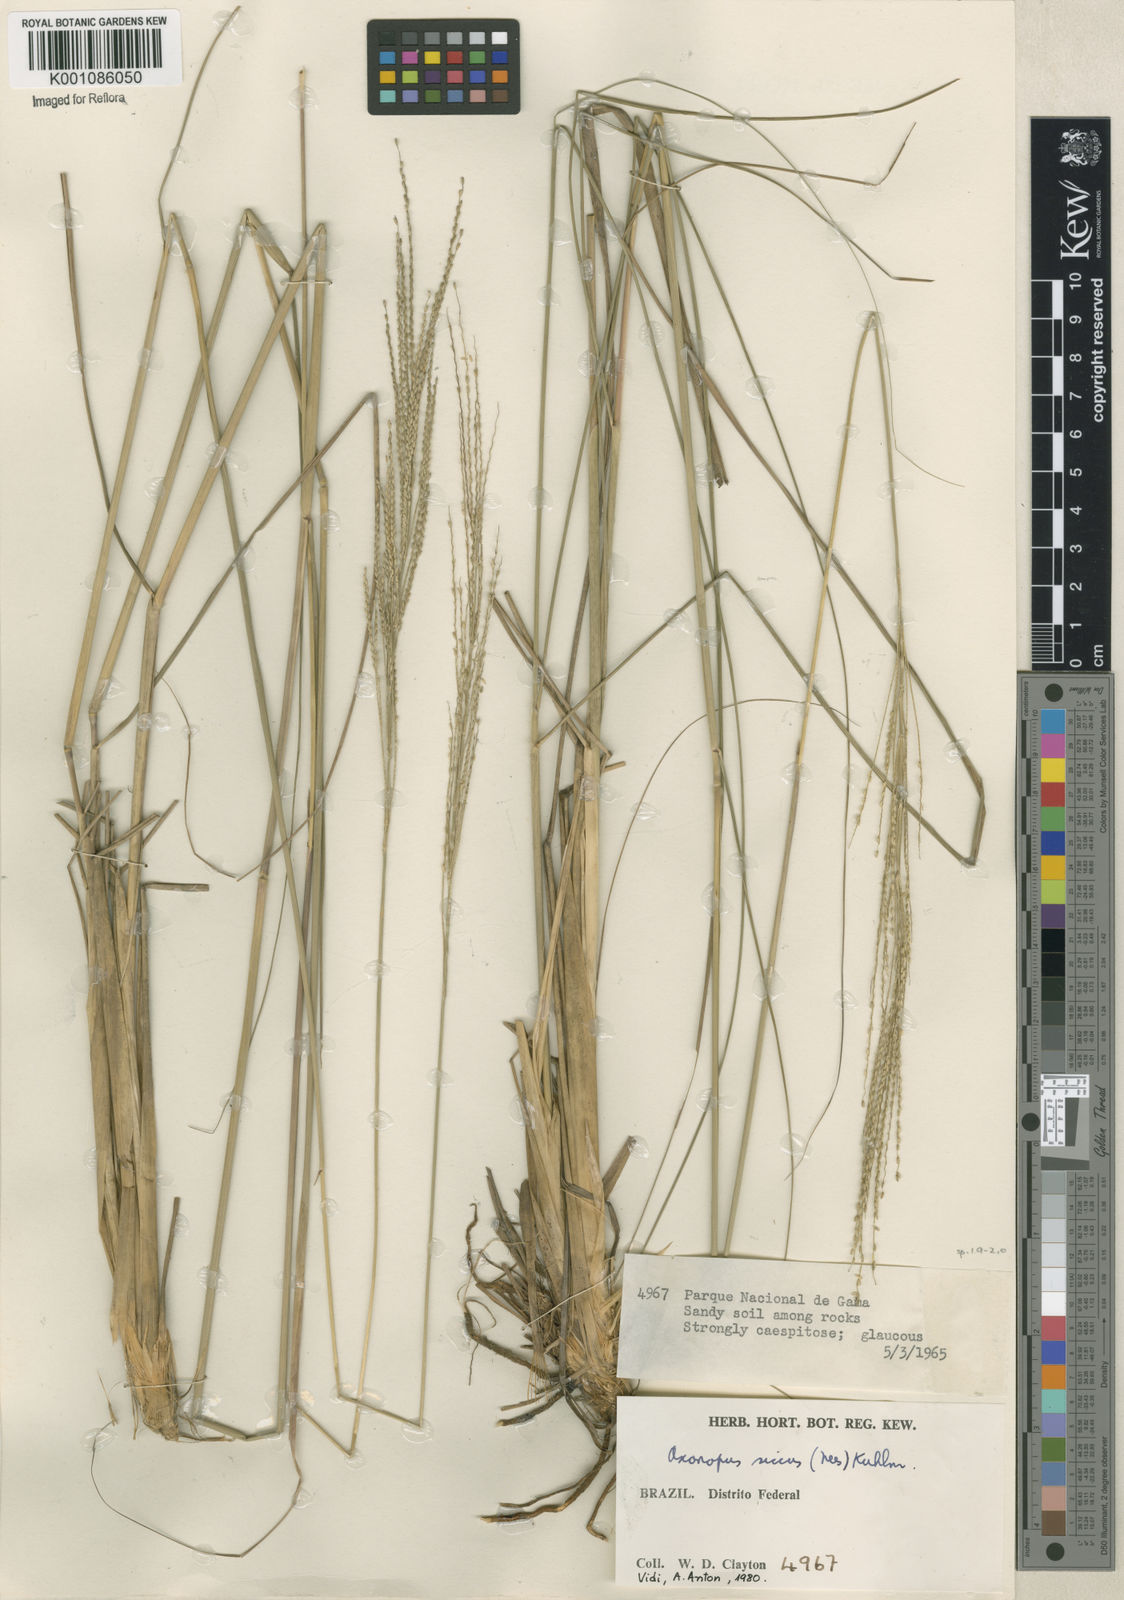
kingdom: Plantae
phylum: Tracheophyta
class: Liliopsida
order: Poales
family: Poaceae
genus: Axonopus
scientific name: Axonopus siccus
